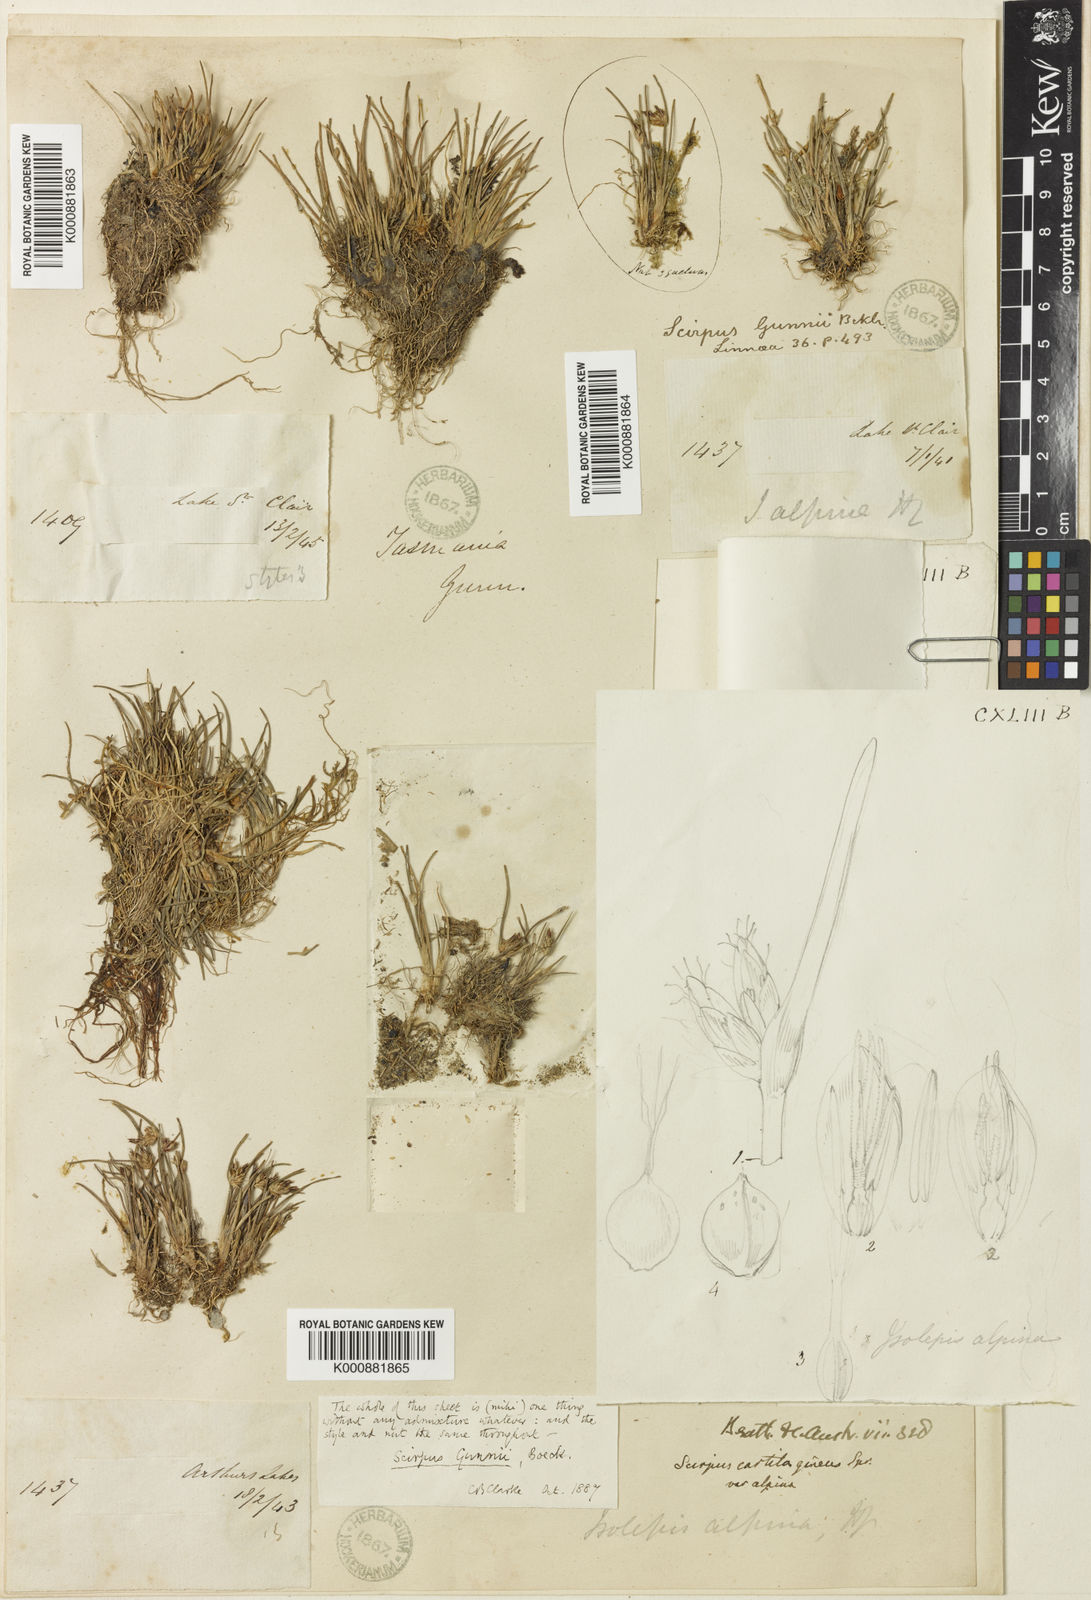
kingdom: Plantae
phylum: Tracheophyta
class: Liliopsida
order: Poales
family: Cyperaceae
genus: Isolepis
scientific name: Isolepis alpina
